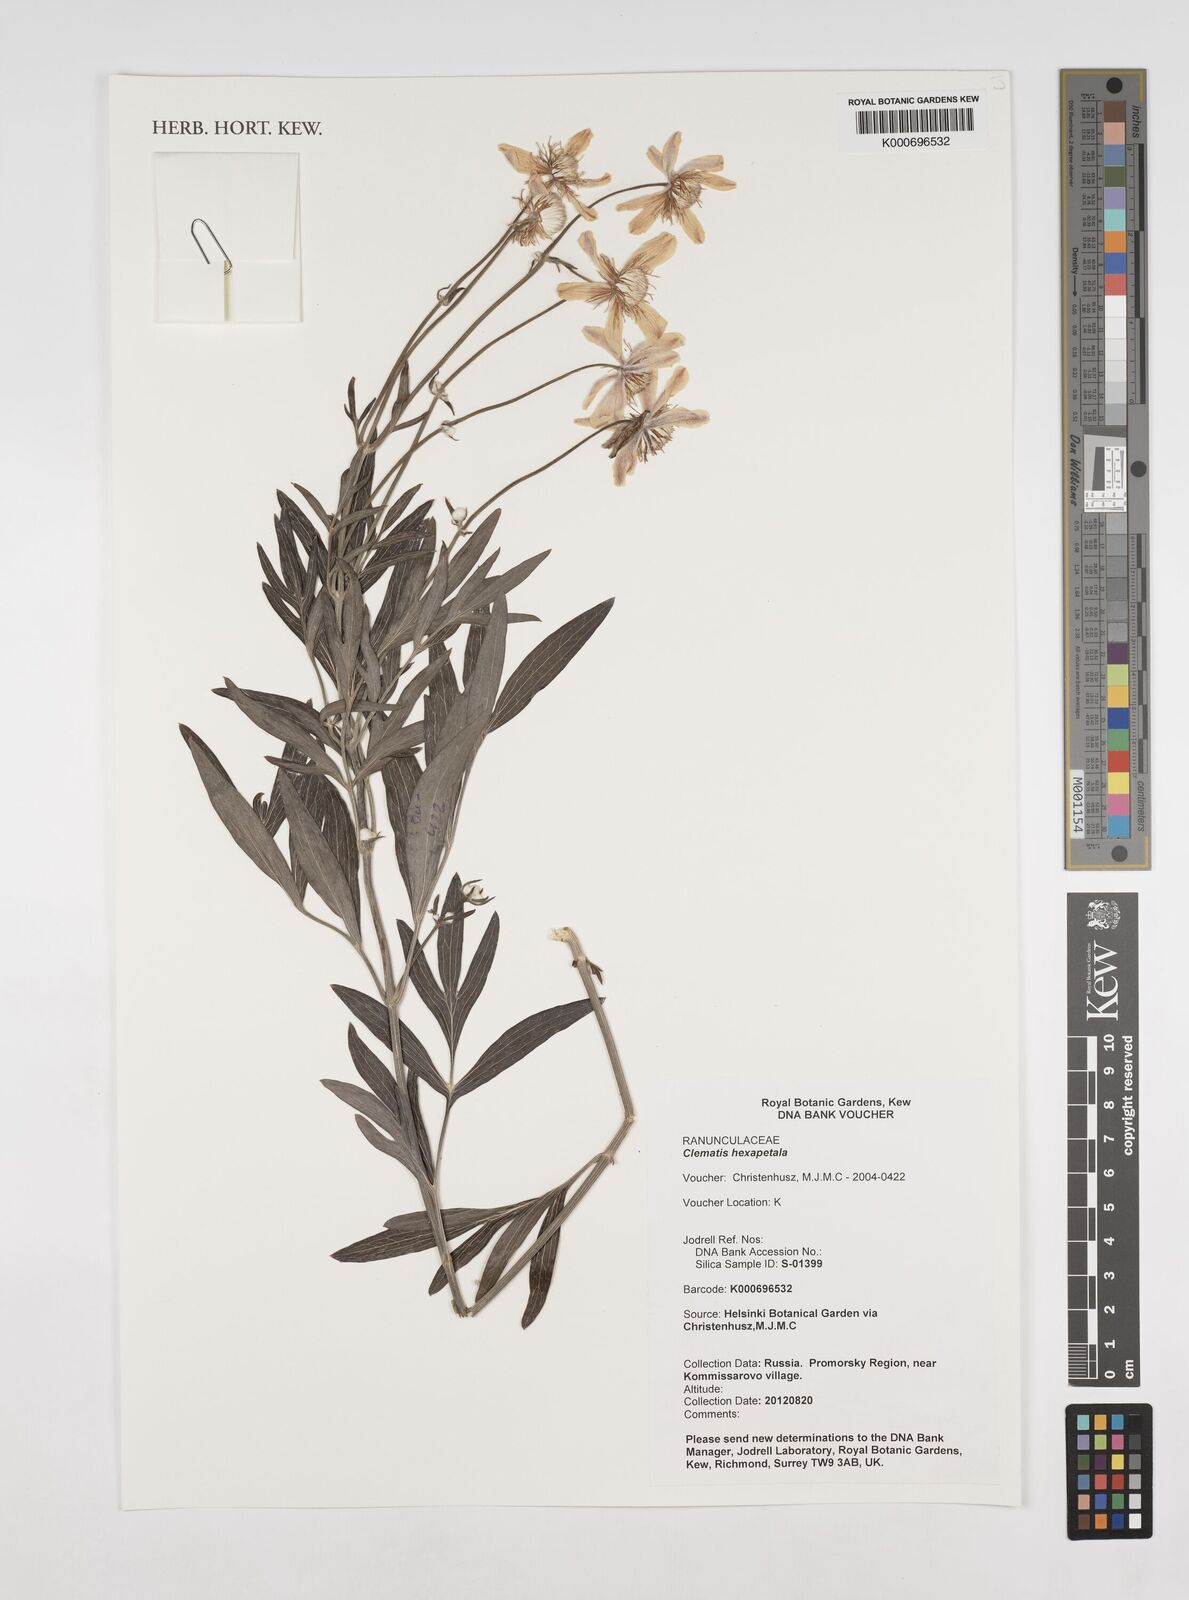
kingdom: Plantae
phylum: Tracheophyta
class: Magnoliopsida
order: Ranunculales
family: Ranunculaceae
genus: Clematis
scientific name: Clematis hexapetala
